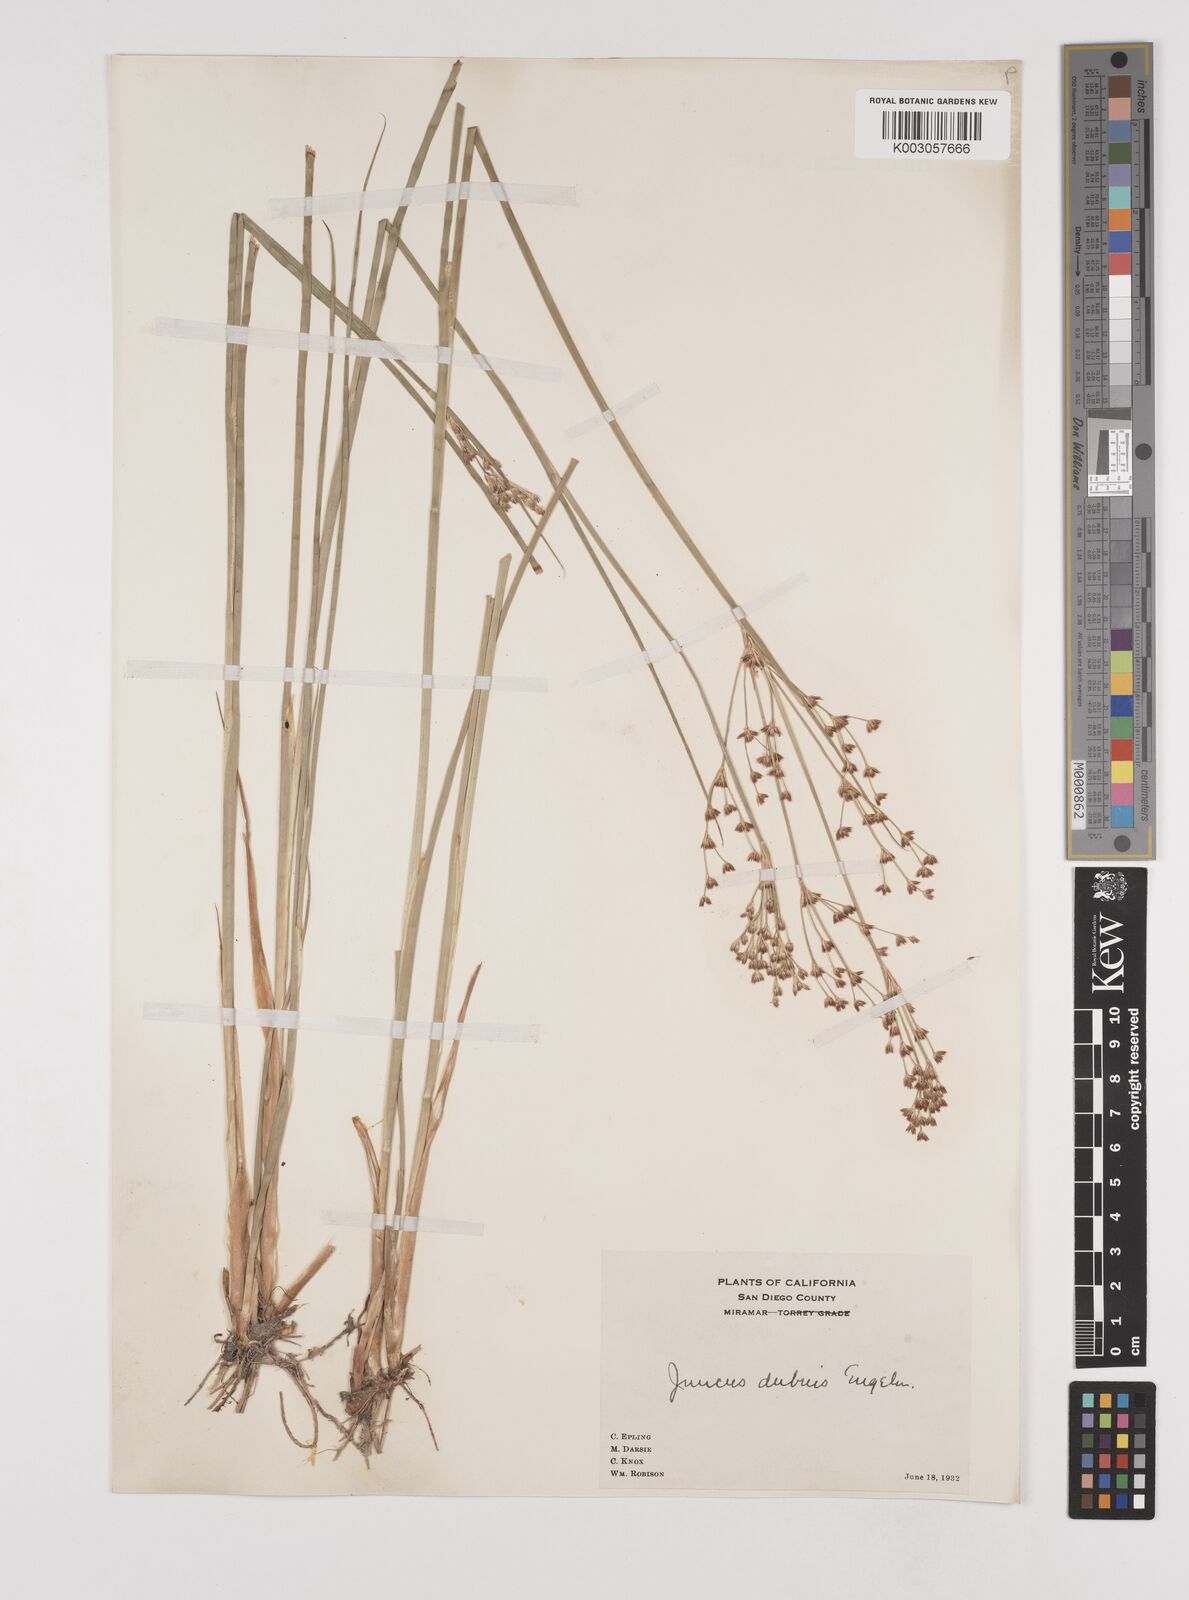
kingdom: Plantae
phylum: Tracheophyta
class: Liliopsida
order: Poales
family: Juncaceae
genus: Juncus
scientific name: Juncus dubius
